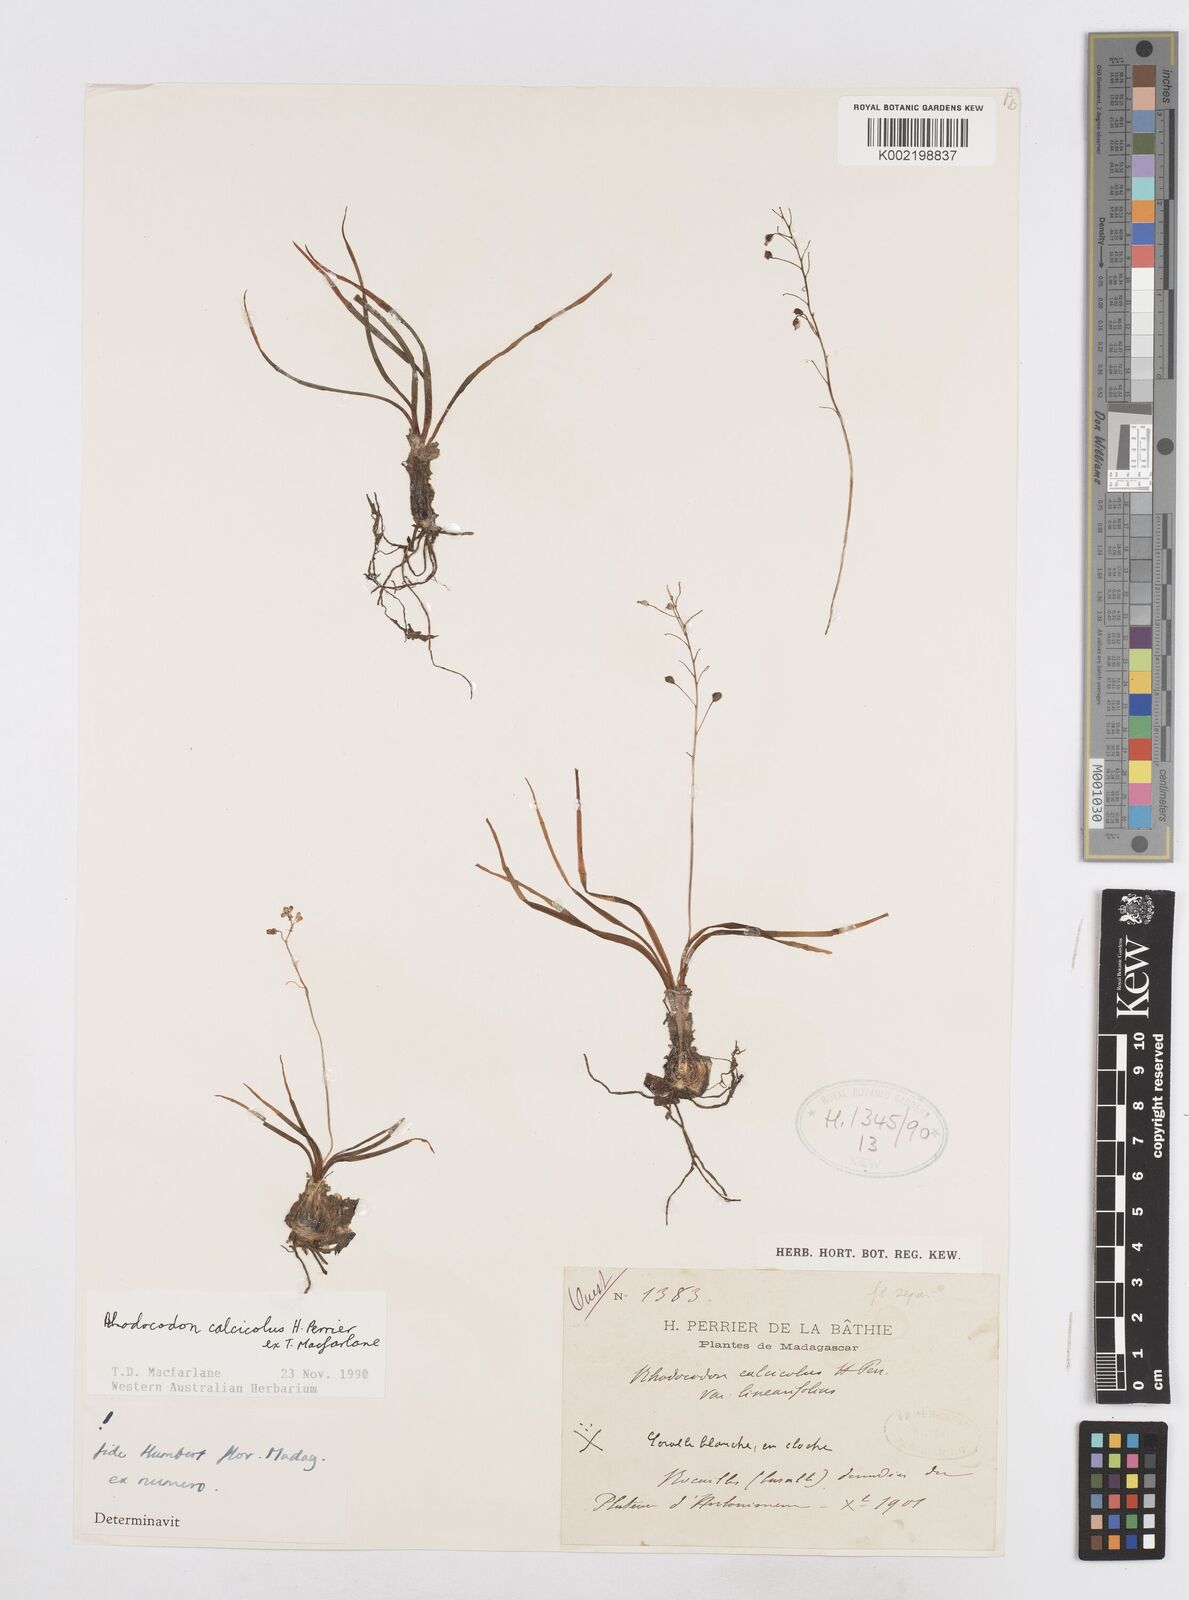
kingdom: Plantae
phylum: Tracheophyta
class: Liliopsida
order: Asparagales
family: Asparagaceae
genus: Drimia
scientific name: Drimia Rhodocodon calcicola
